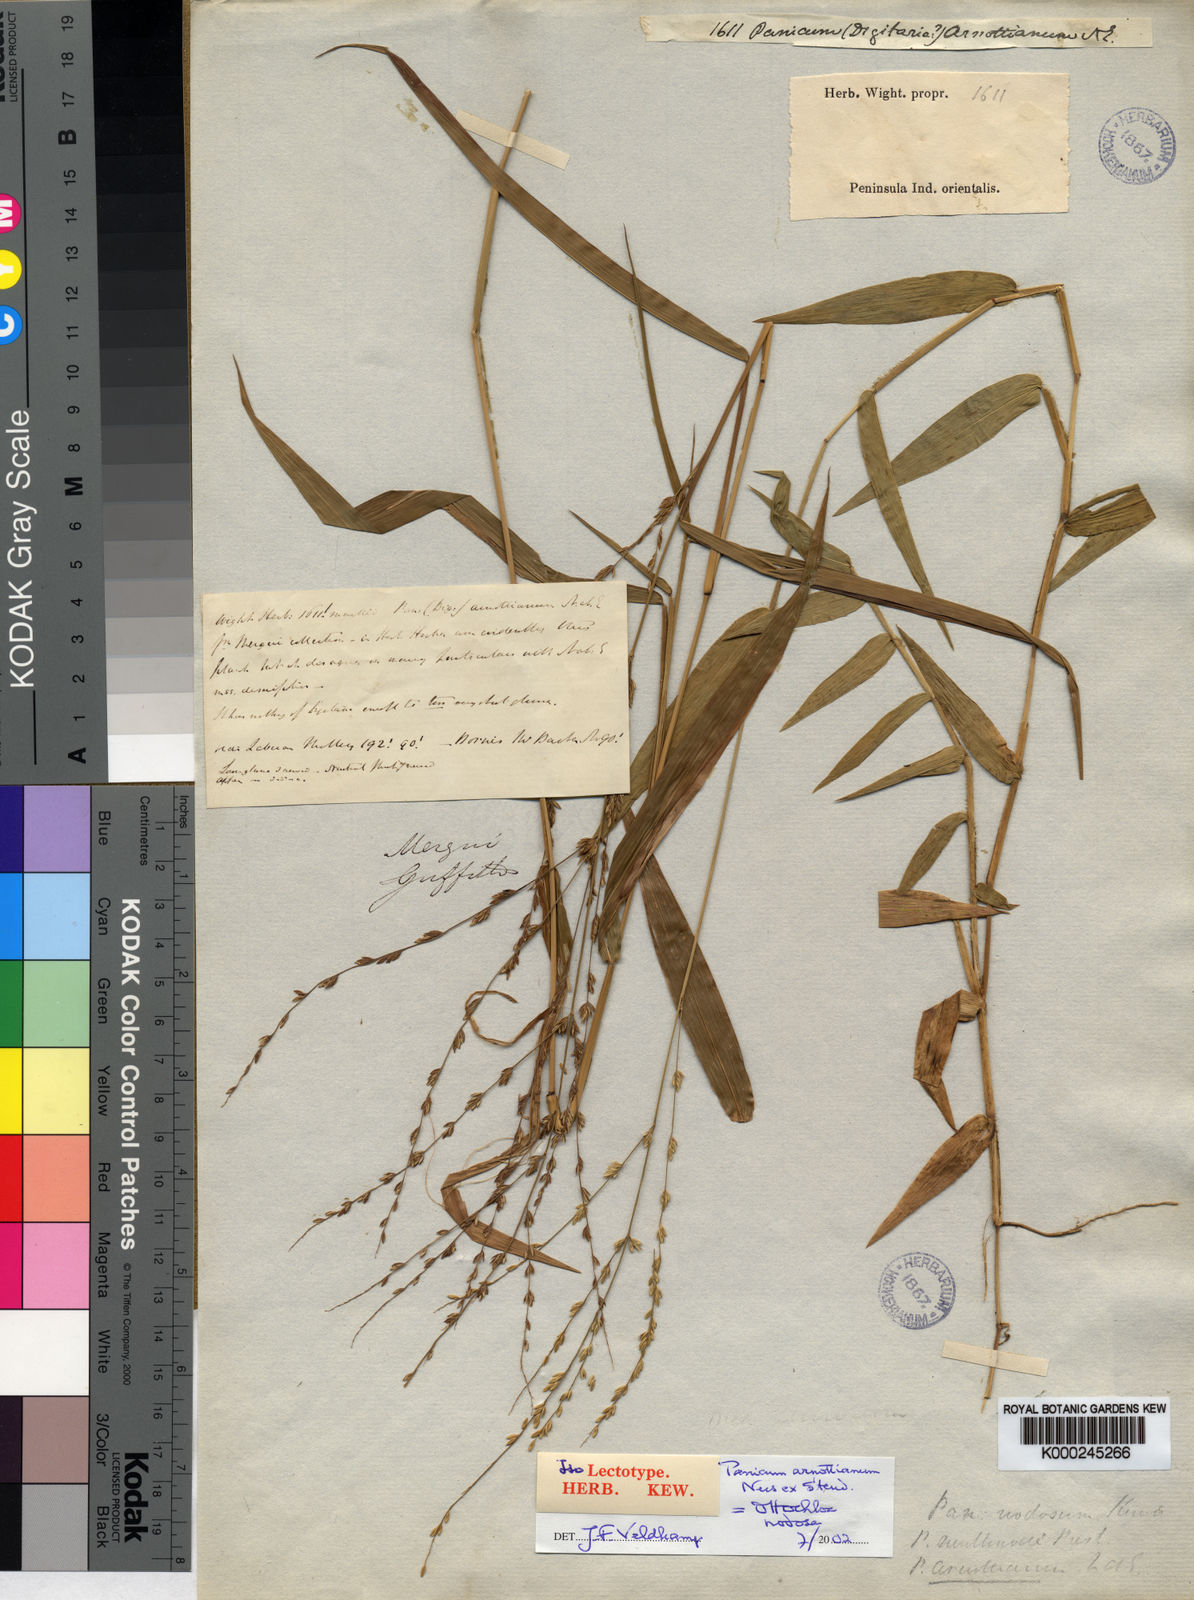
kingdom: Plantae
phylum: Tracheophyta
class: Liliopsida
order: Poales
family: Poaceae
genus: Ottochloa
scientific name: Ottochloa nodosa
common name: Slender-panic grass
